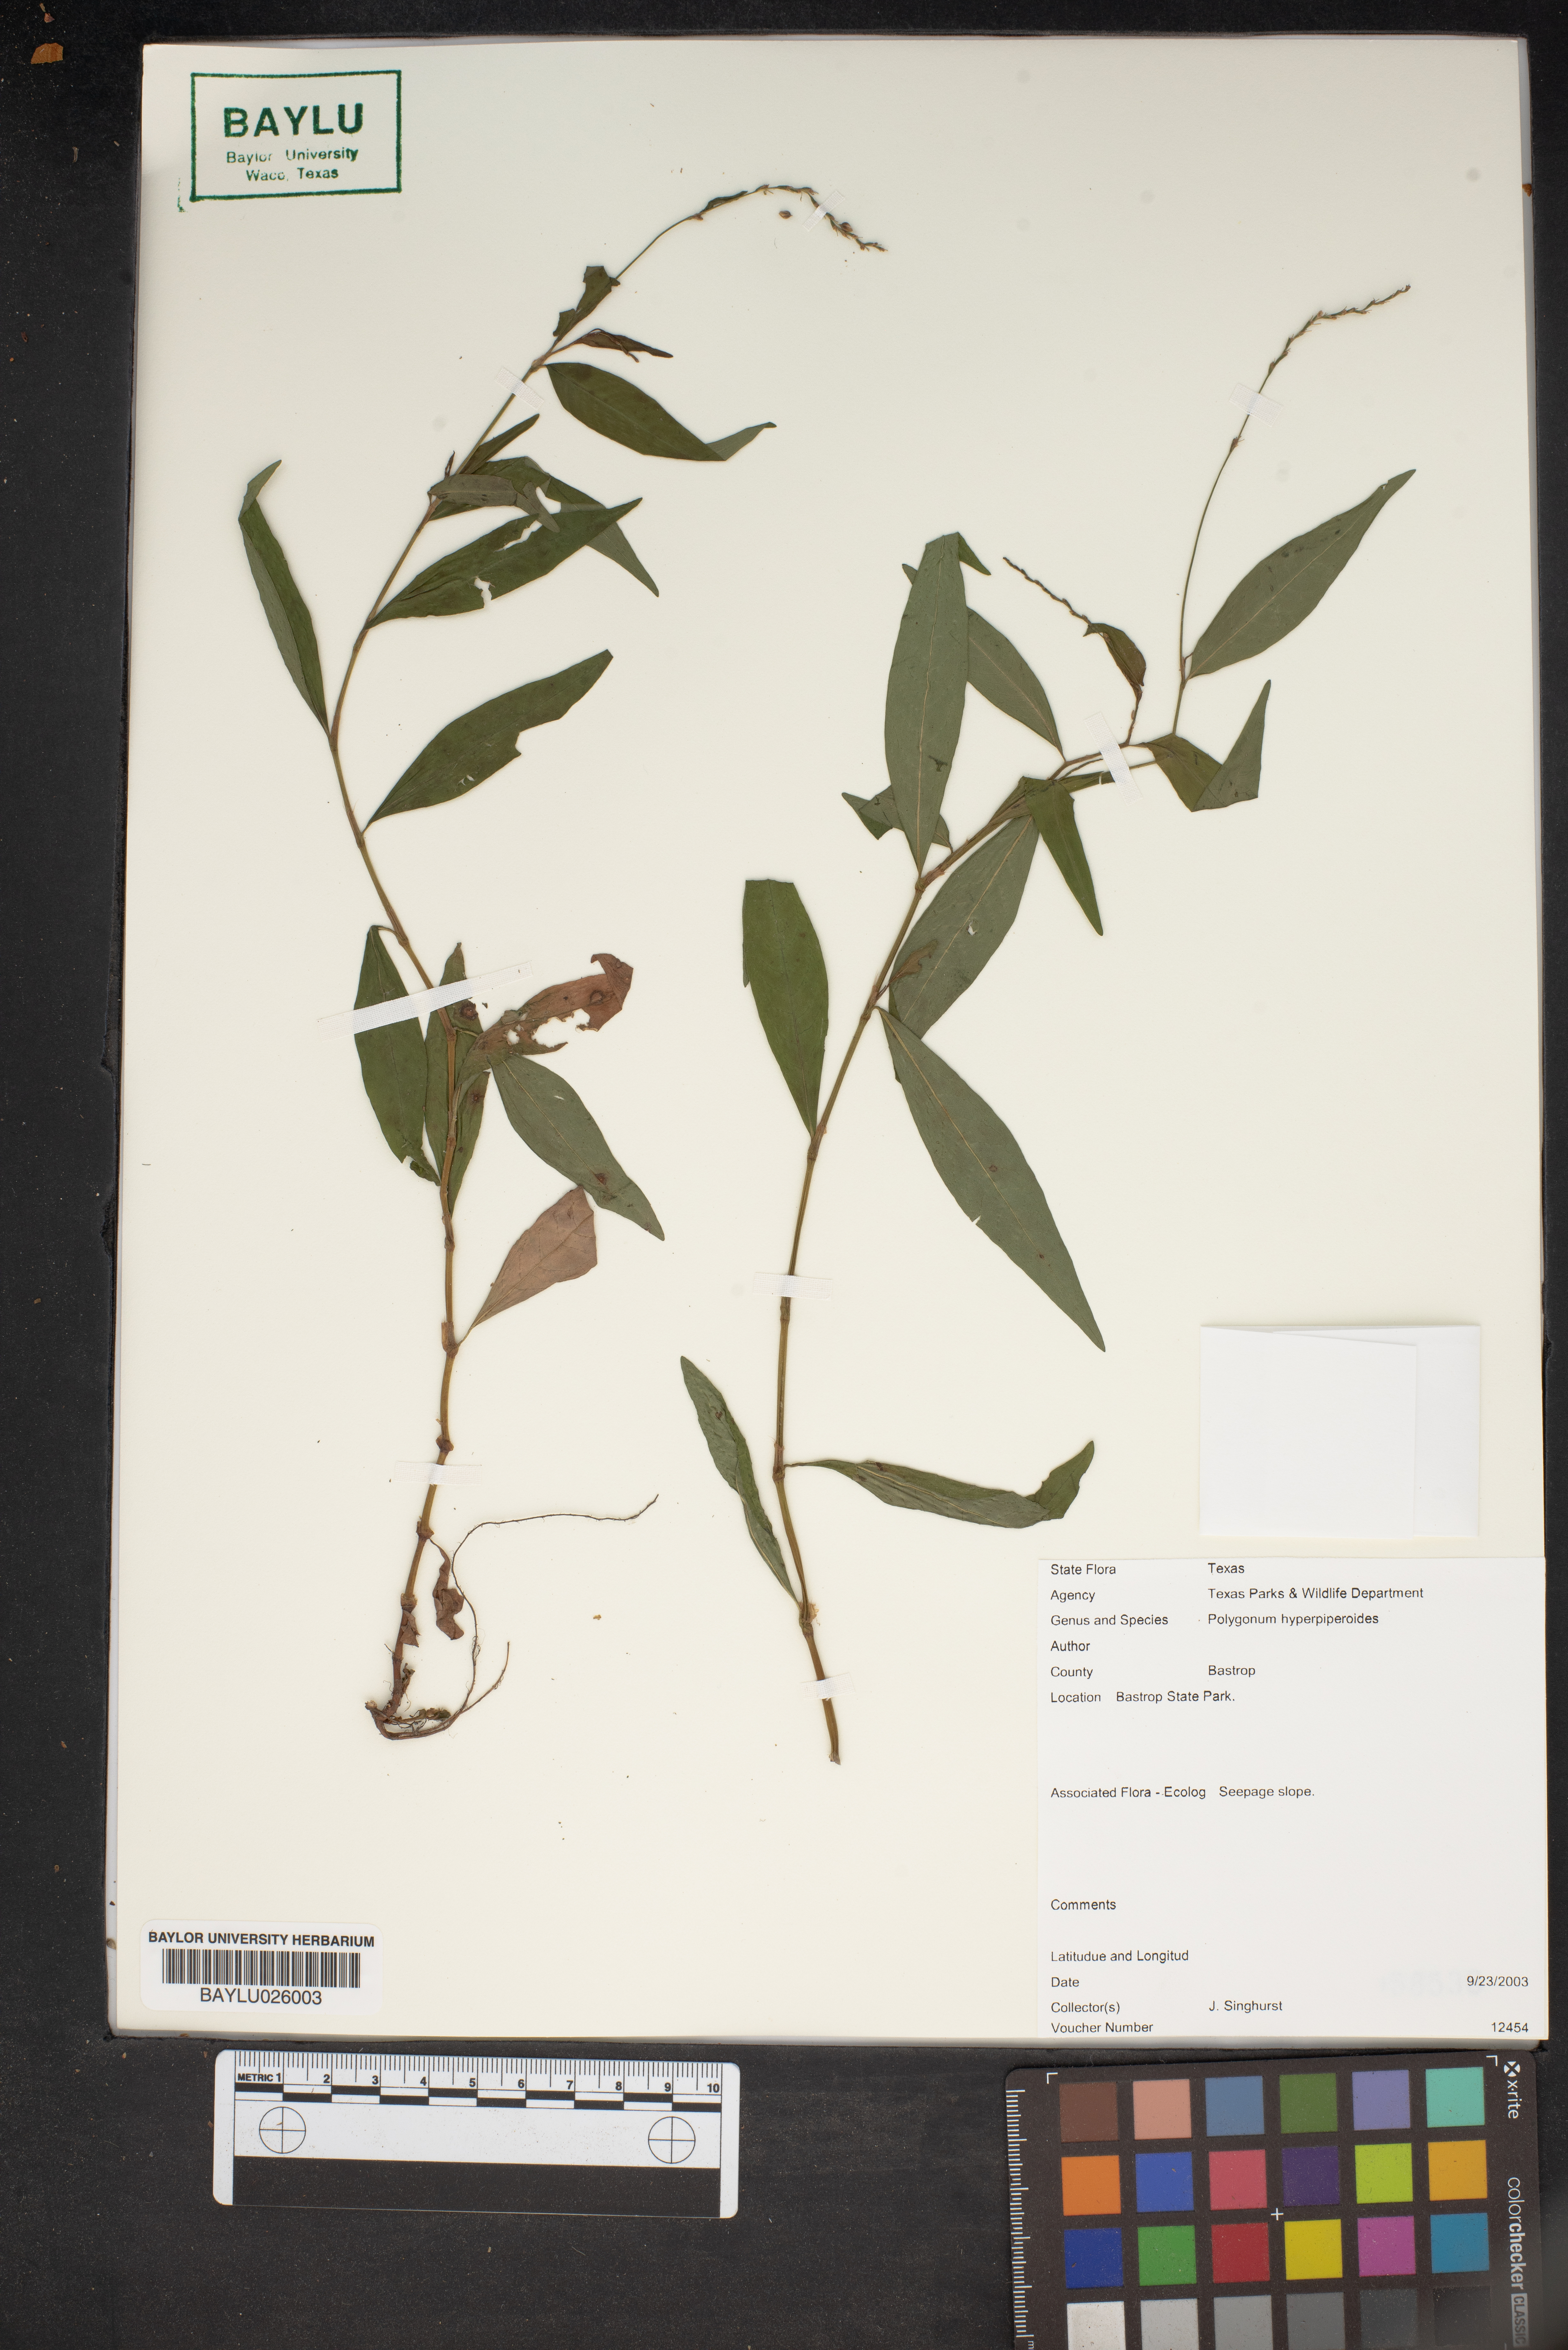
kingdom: Plantae
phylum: Tracheophyta
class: Magnoliopsida
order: Caryophyllales
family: Polygonaceae
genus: Persicaria
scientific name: Persicaria hydropiperoides
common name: Swamp smartweed
